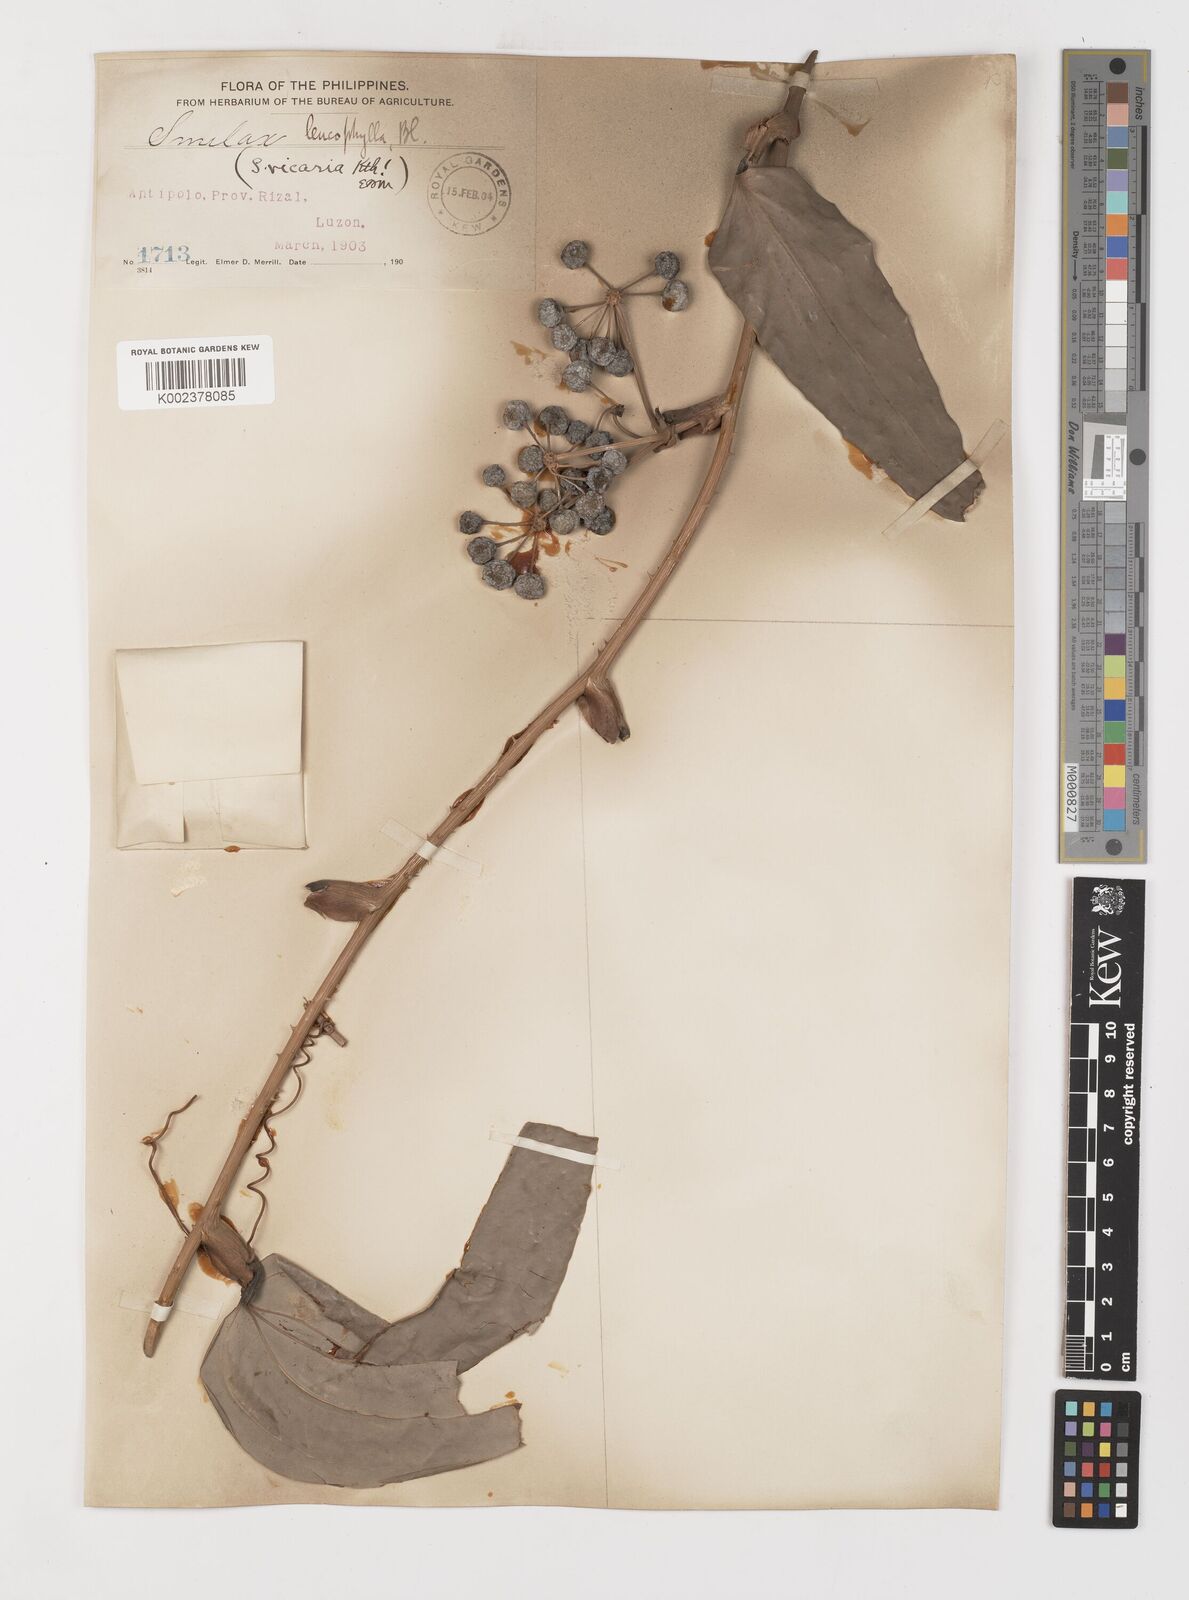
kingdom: Plantae
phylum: Tracheophyta
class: Liliopsida
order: Liliales
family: Smilacaceae
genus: Smilax
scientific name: Smilax leucophylla
